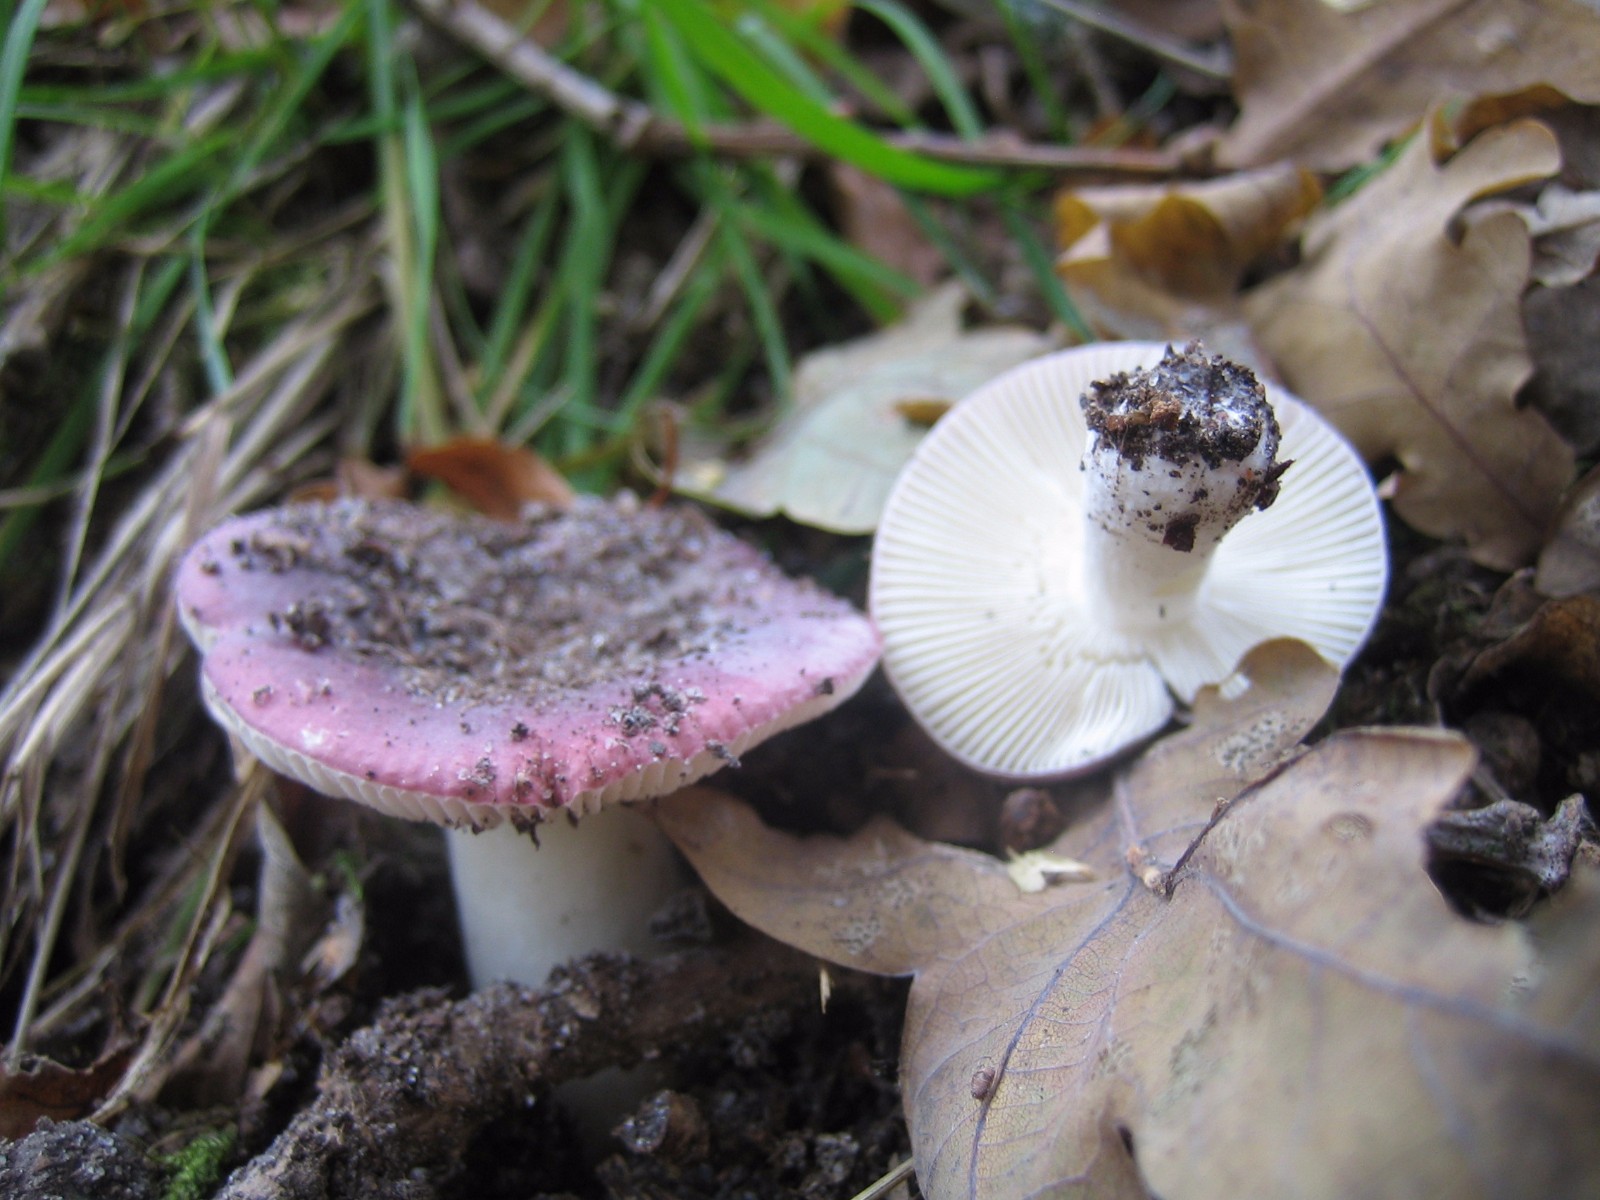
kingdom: Fungi
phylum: Basidiomycota
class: Agaricomycetes
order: Russulales
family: Russulaceae
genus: Russula
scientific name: Russula fragilis
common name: savbladet skørhat
